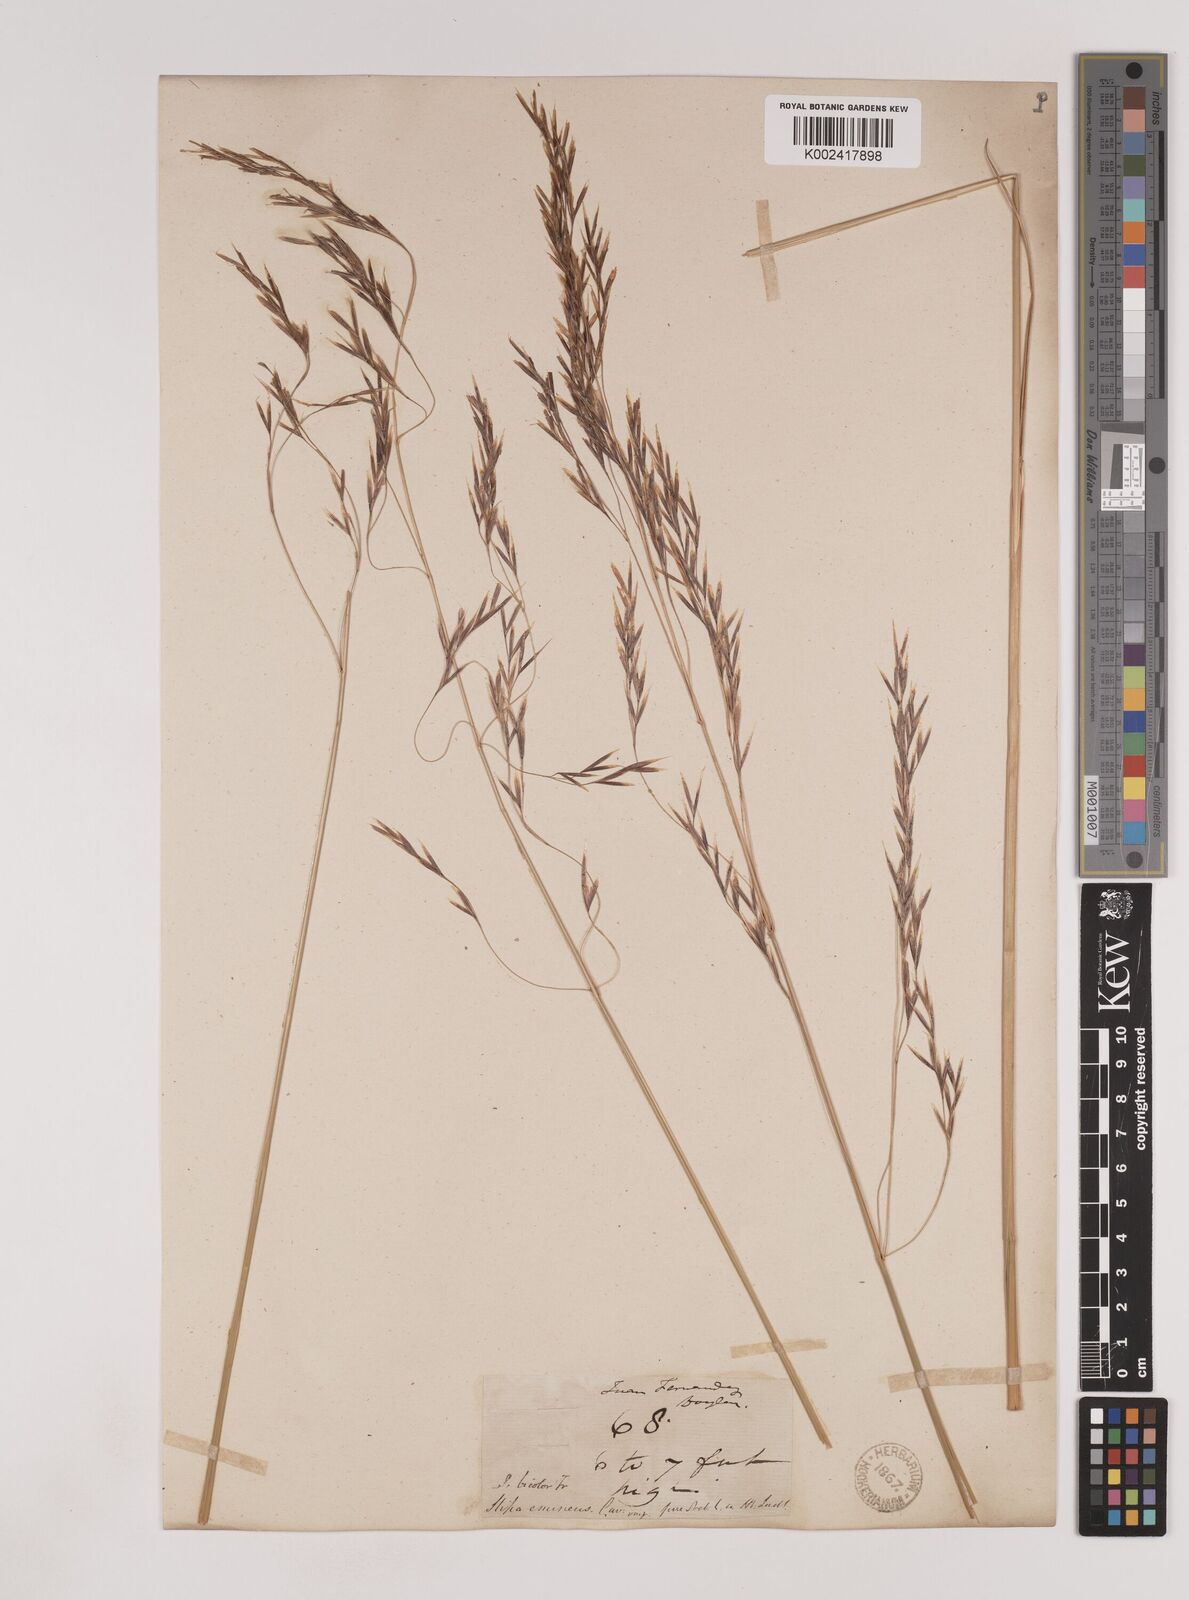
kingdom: Plantae
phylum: Tracheophyta
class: Liliopsida
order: Poales
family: Poaceae
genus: Nassella
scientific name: Nassella neesiana
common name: American needle-grass
